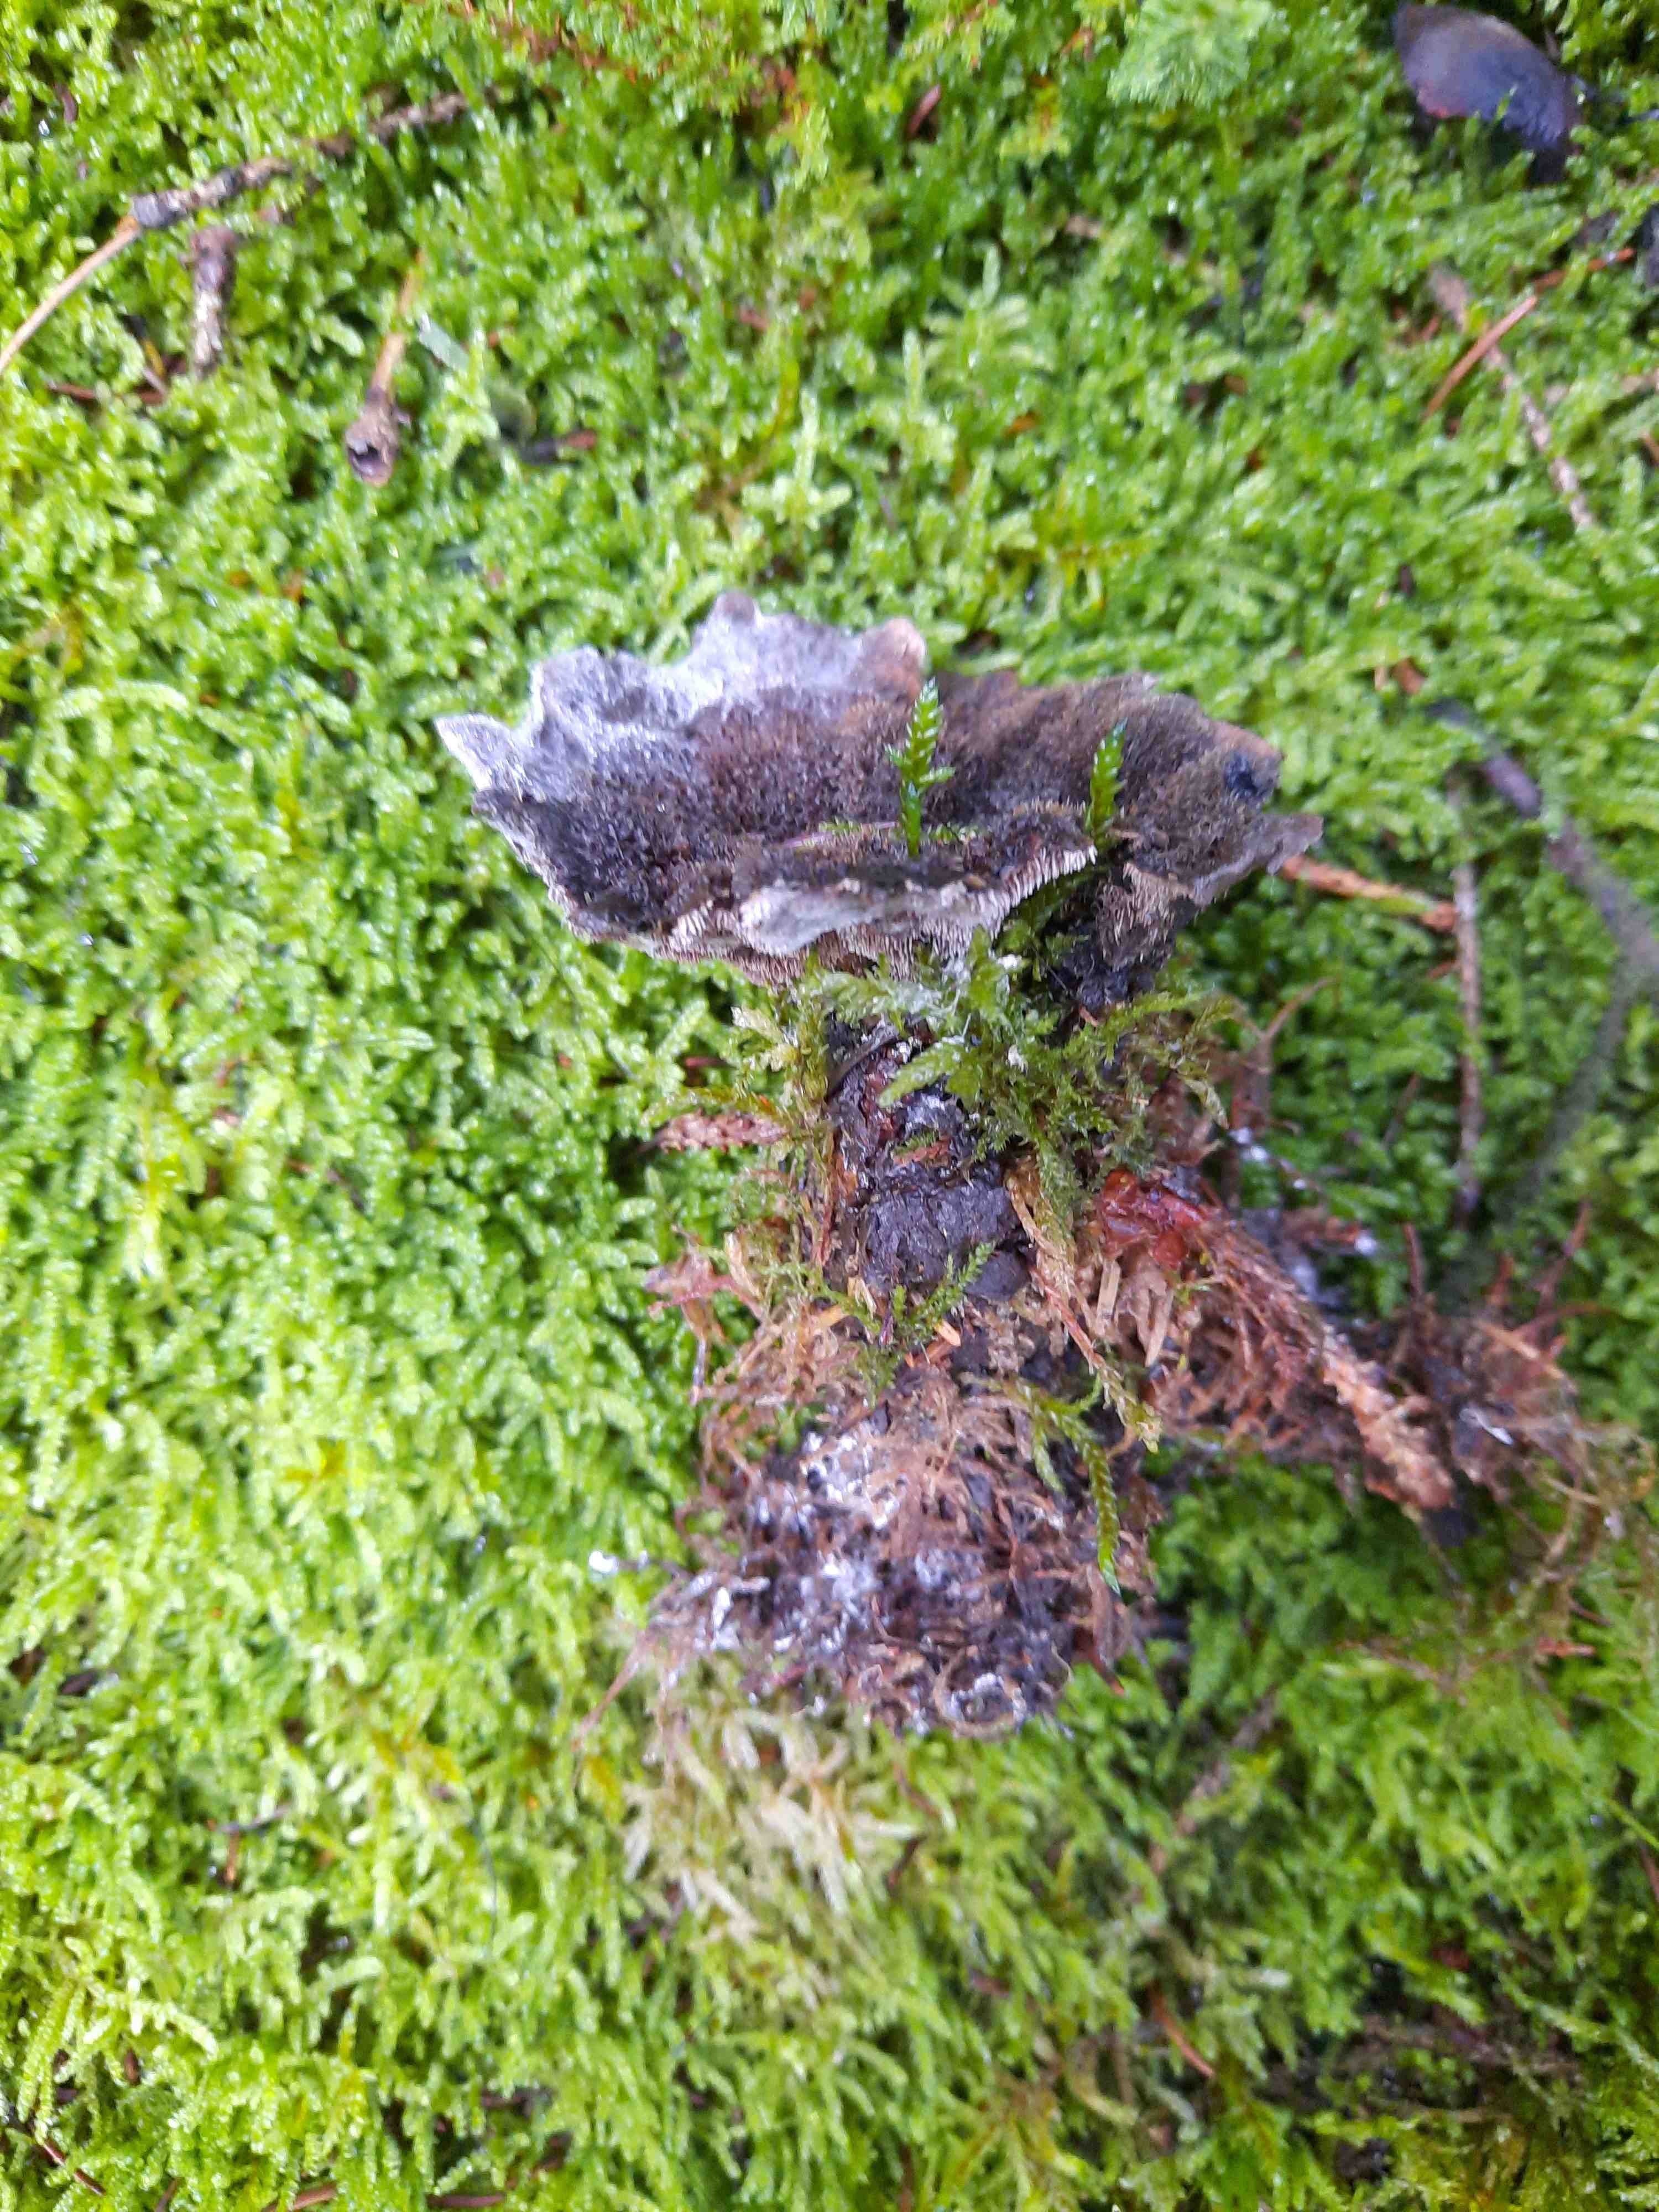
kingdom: Fungi
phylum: Basidiomycota
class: Agaricomycetes
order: Thelephorales
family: Thelephoraceae
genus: Phellodon
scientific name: Phellodon
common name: mørk duftpigsvamp
